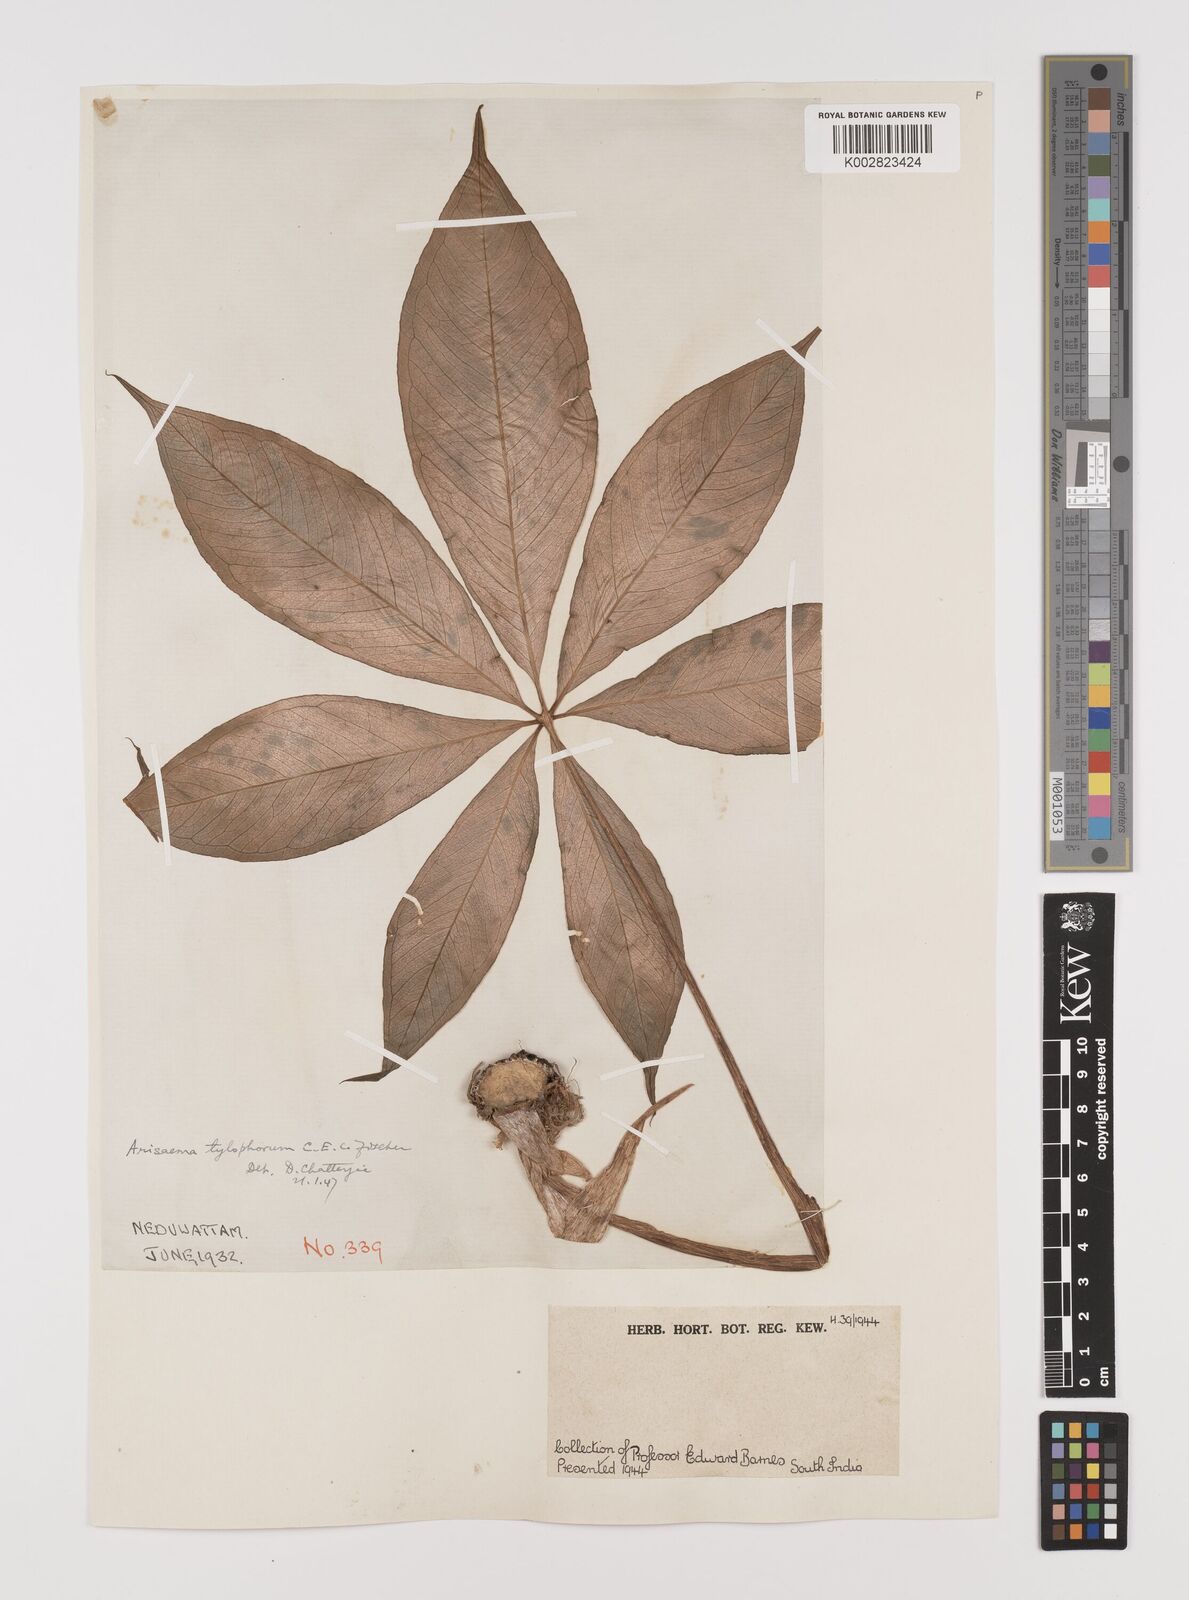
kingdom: Plantae
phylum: Tracheophyta
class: Liliopsida
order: Alismatales
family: Araceae
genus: Arisaema
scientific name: Arisaema barnesii
